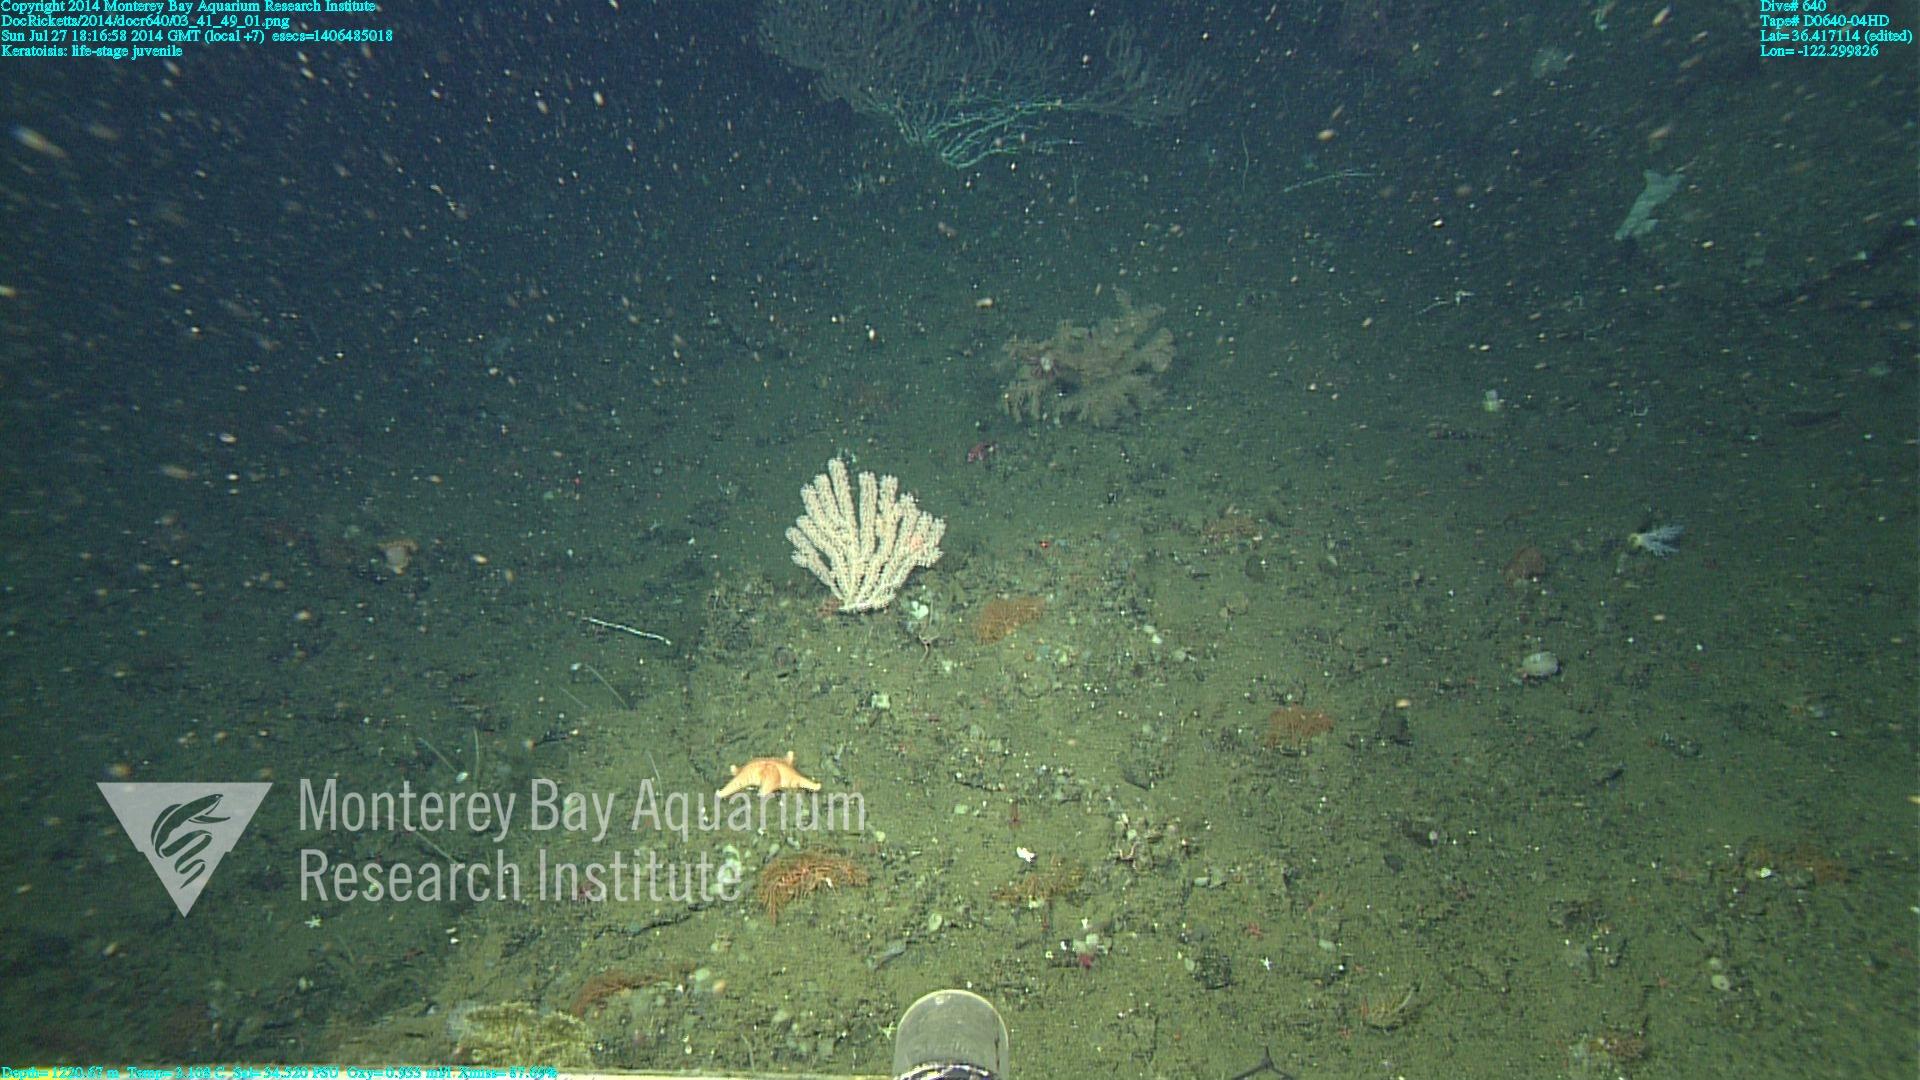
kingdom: Animalia
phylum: Cnidaria
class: Anthozoa
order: Scleralcyonacea
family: Keratoisididae
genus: Keratoisis
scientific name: Keratoisis
